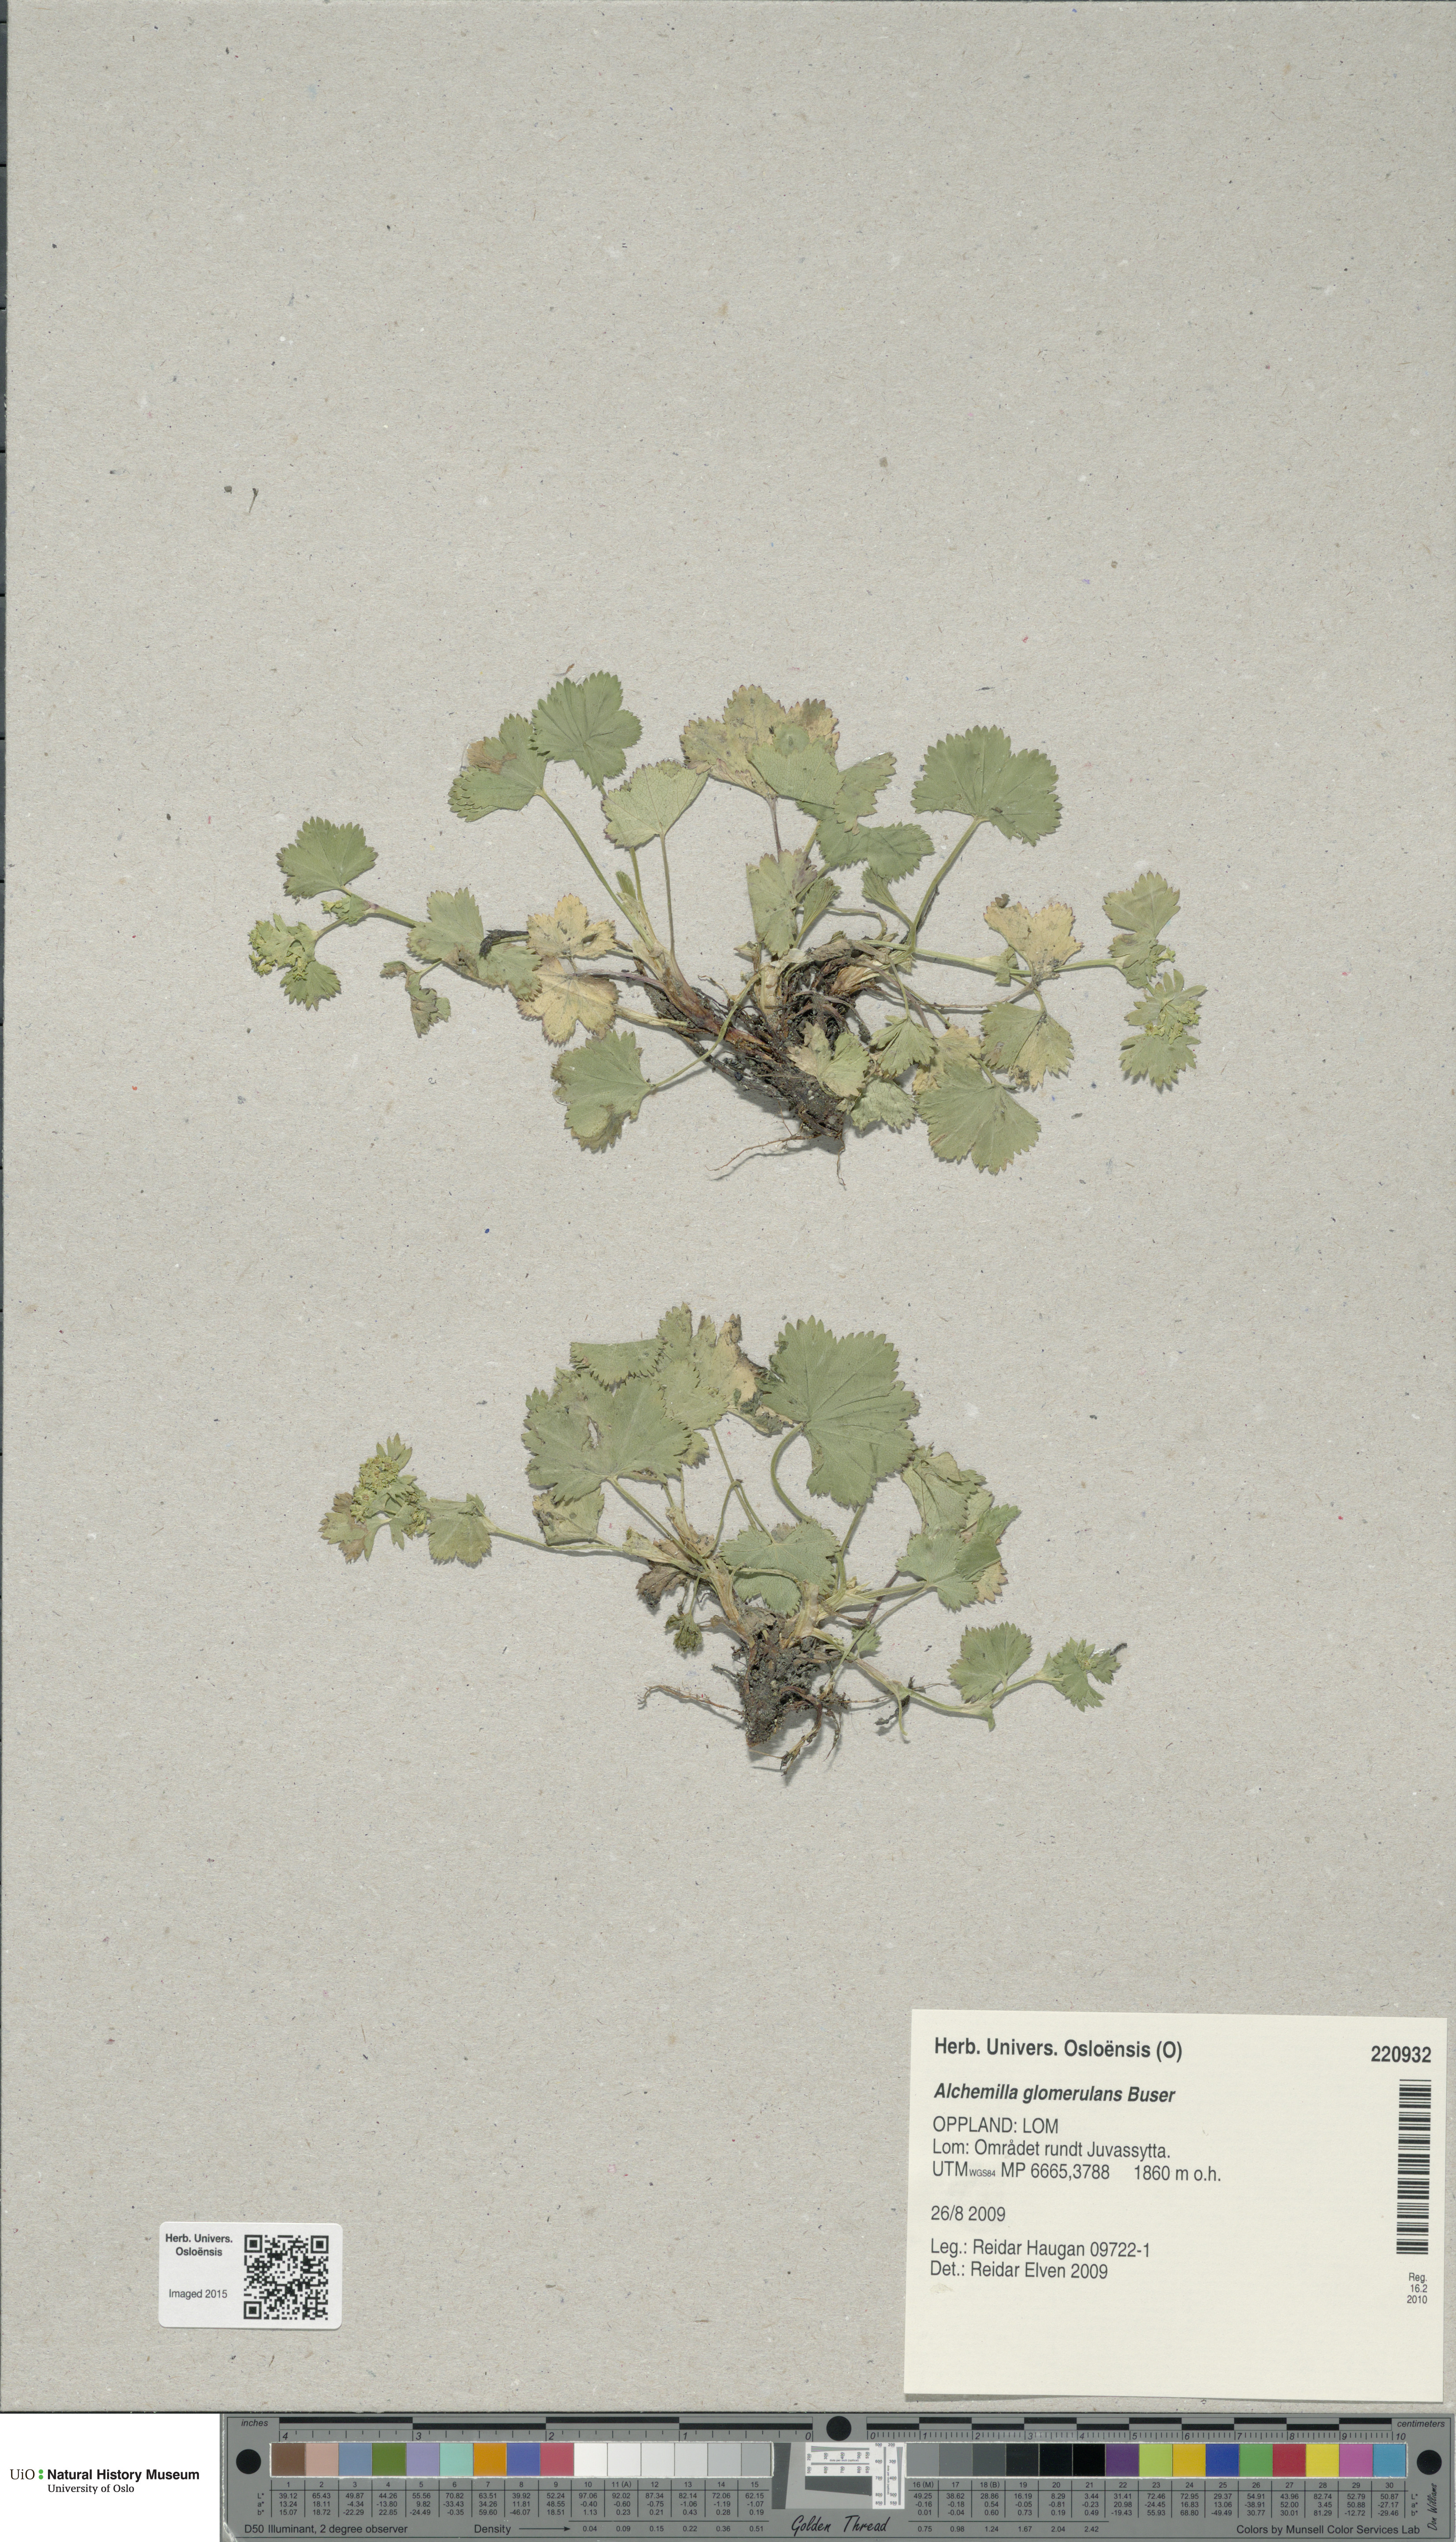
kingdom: Plantae
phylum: Tracheophyta
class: Magnoliopsida
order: Rosales
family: Rosaceae
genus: Alchemilla
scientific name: Alchemilla glomerulans
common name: Clustered lady's mantle
